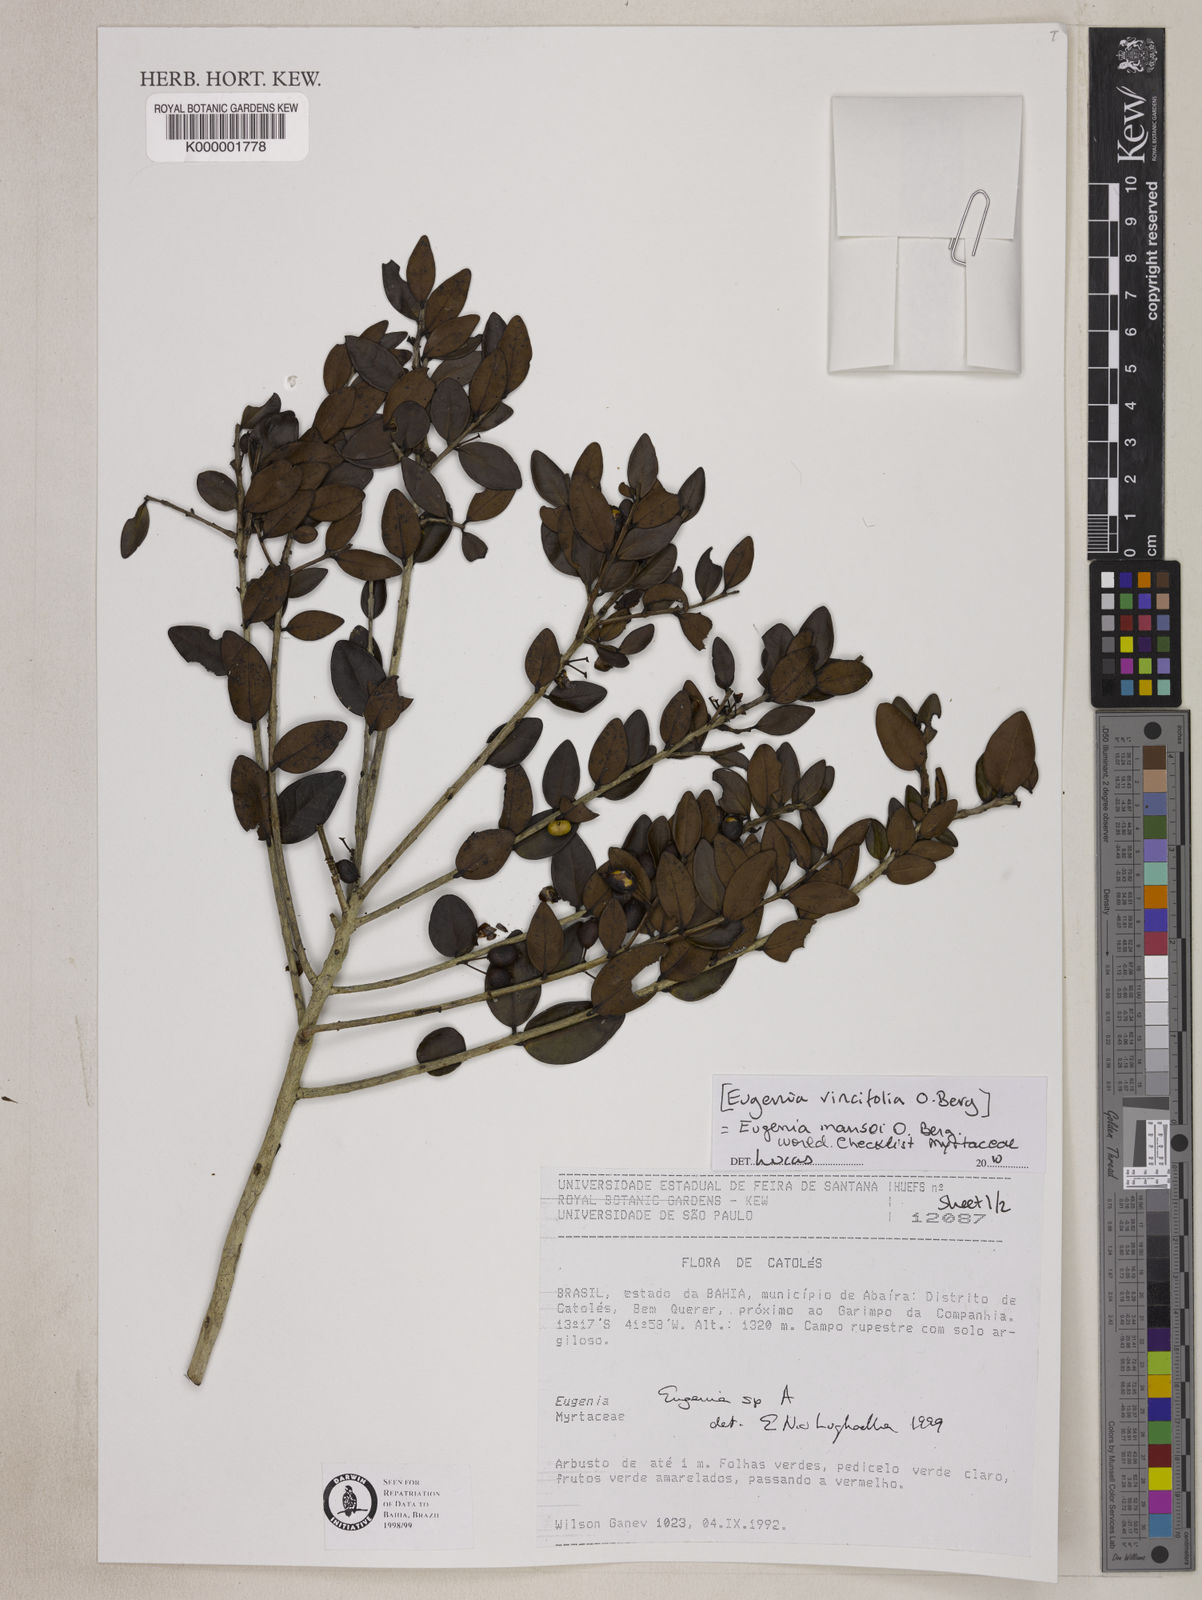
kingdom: Plantae
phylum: Tracheophyta
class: Magnoliopsida
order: Myrtales
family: Myrtaceae
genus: Eugenia
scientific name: Eugenia
